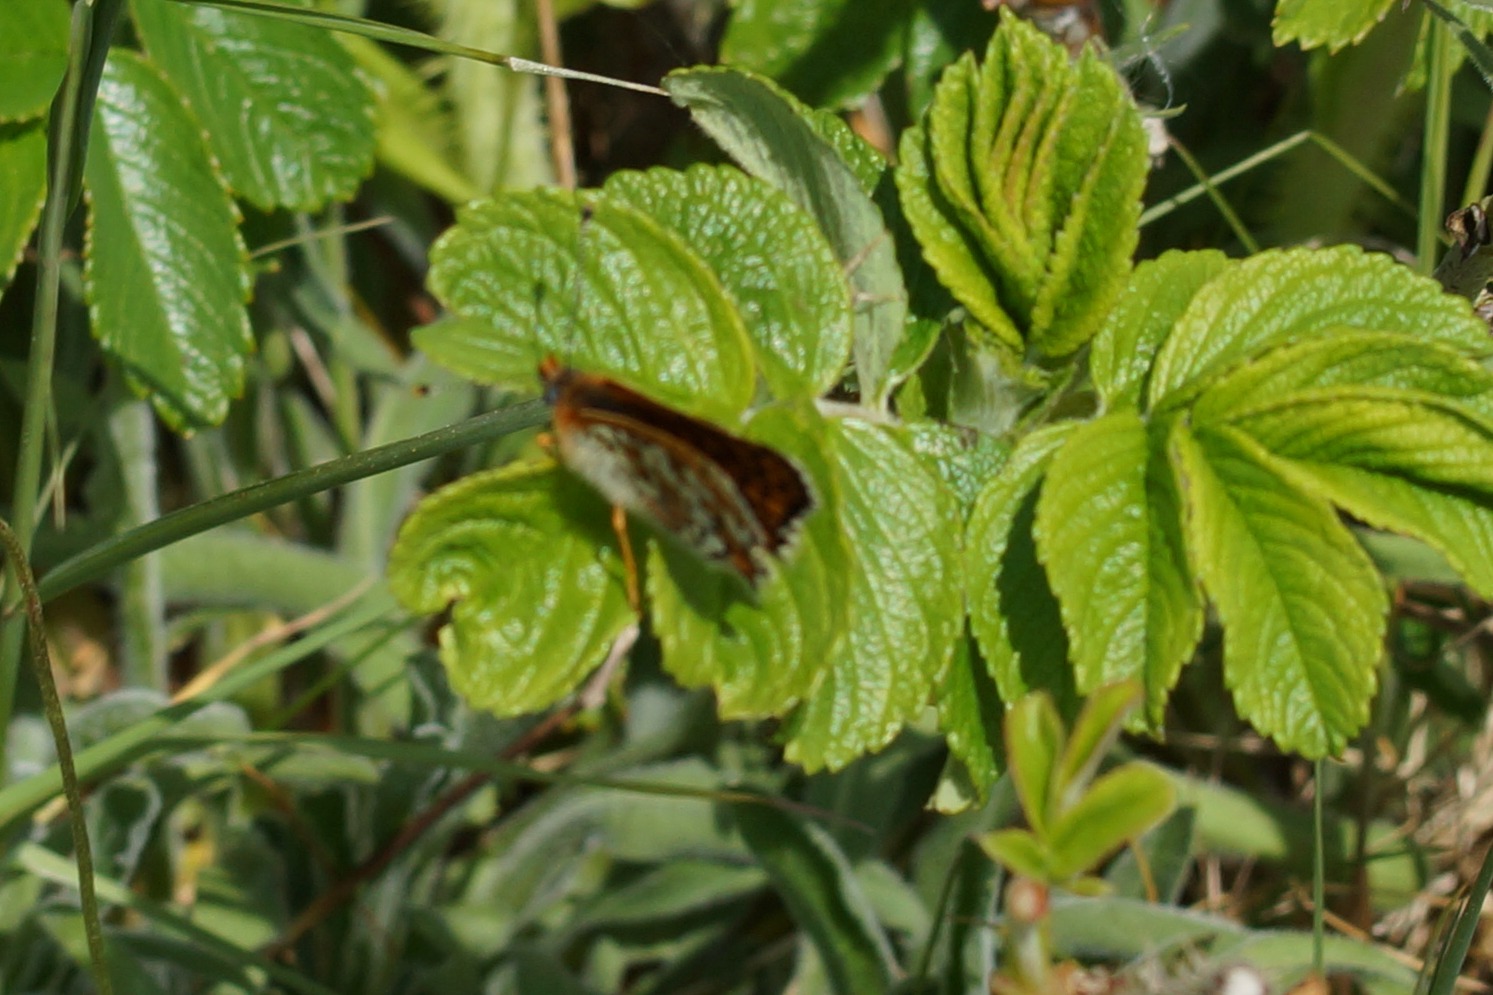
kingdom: Animalia
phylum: Arthropoda
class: Insecta
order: Lepidoptera
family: Nymphalidae
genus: Melitaea
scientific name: Melitaea cinxia
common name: Okkergul pletvinge
